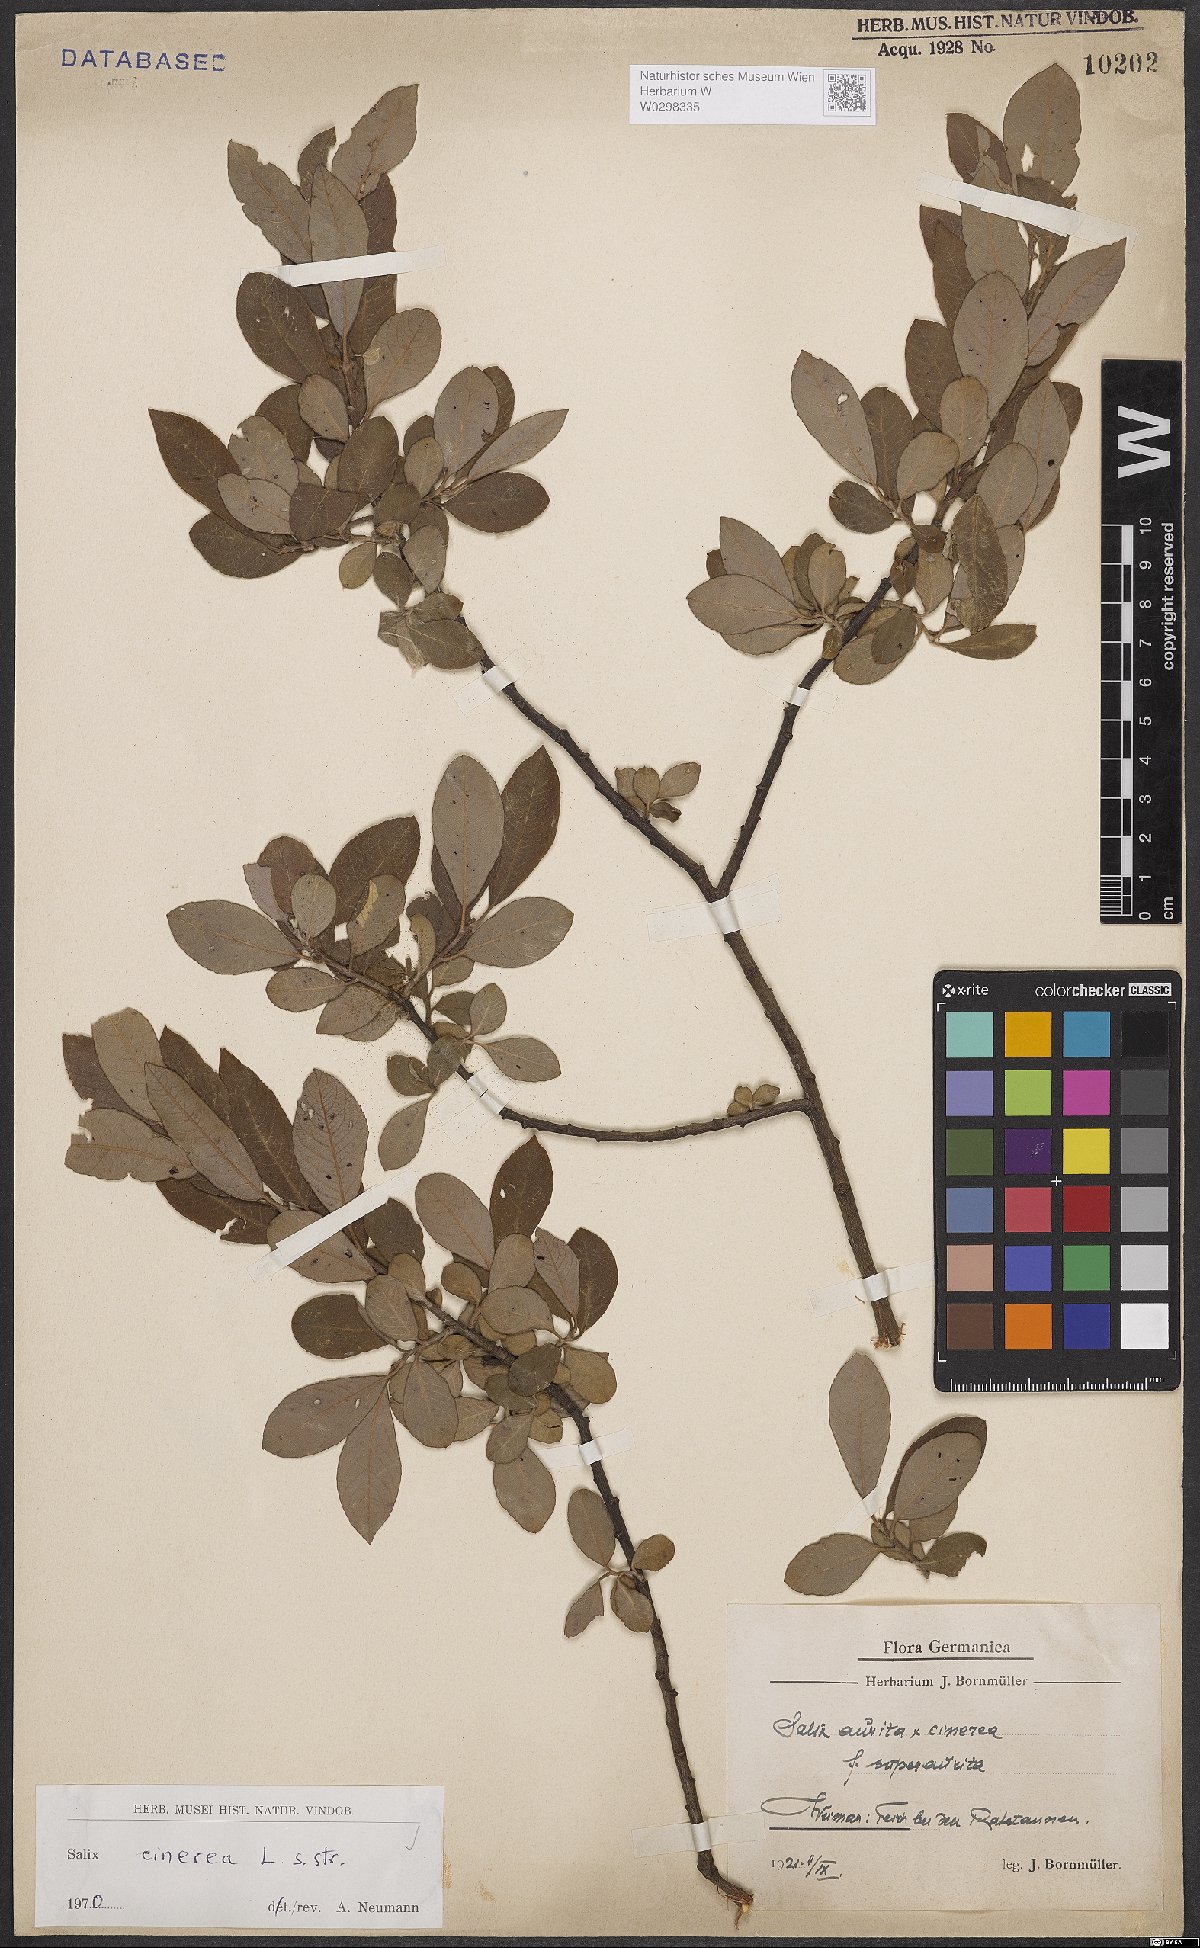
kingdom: Plantae
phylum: Tracheophyta
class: Magnoliopsida
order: Malpighiales
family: Salicaceae
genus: Salix
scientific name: Salix cinerea
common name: Common sallow
